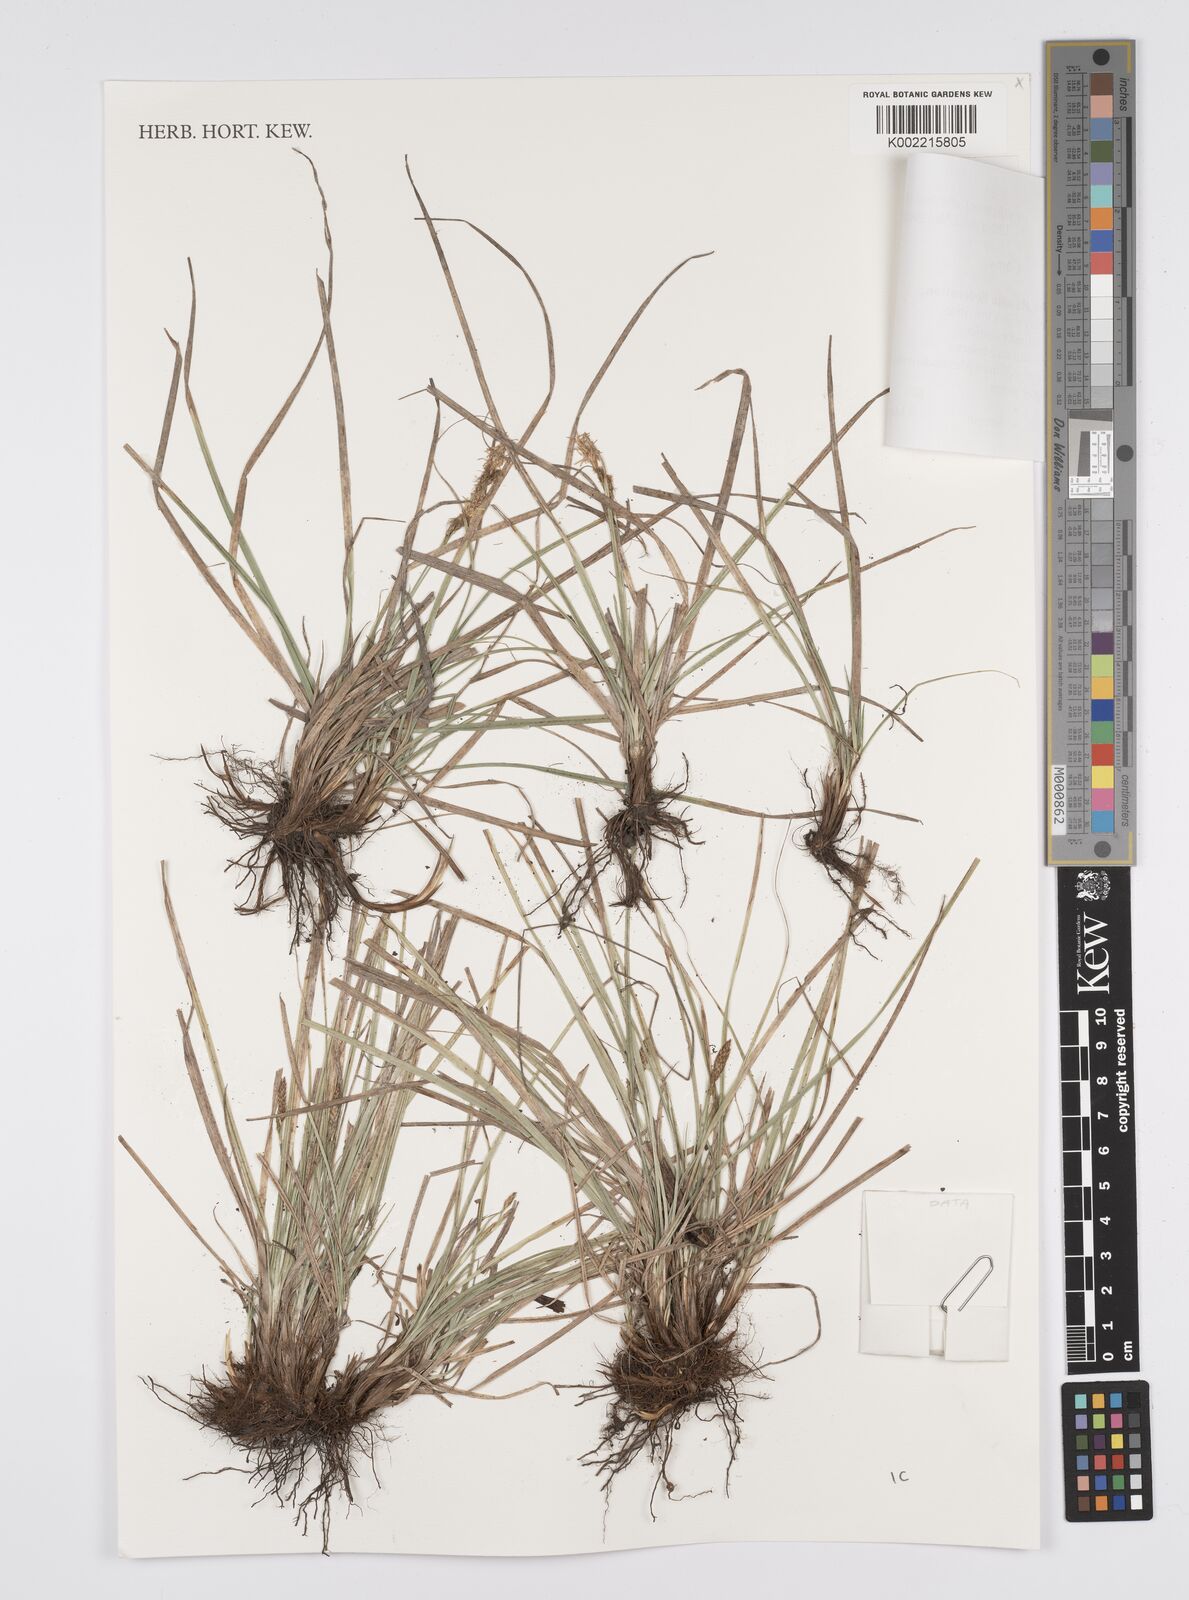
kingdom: Plantae
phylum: Tracheophyta
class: Liliopsida
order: Poales
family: Cyperaceae
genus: Carex
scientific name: Carex
